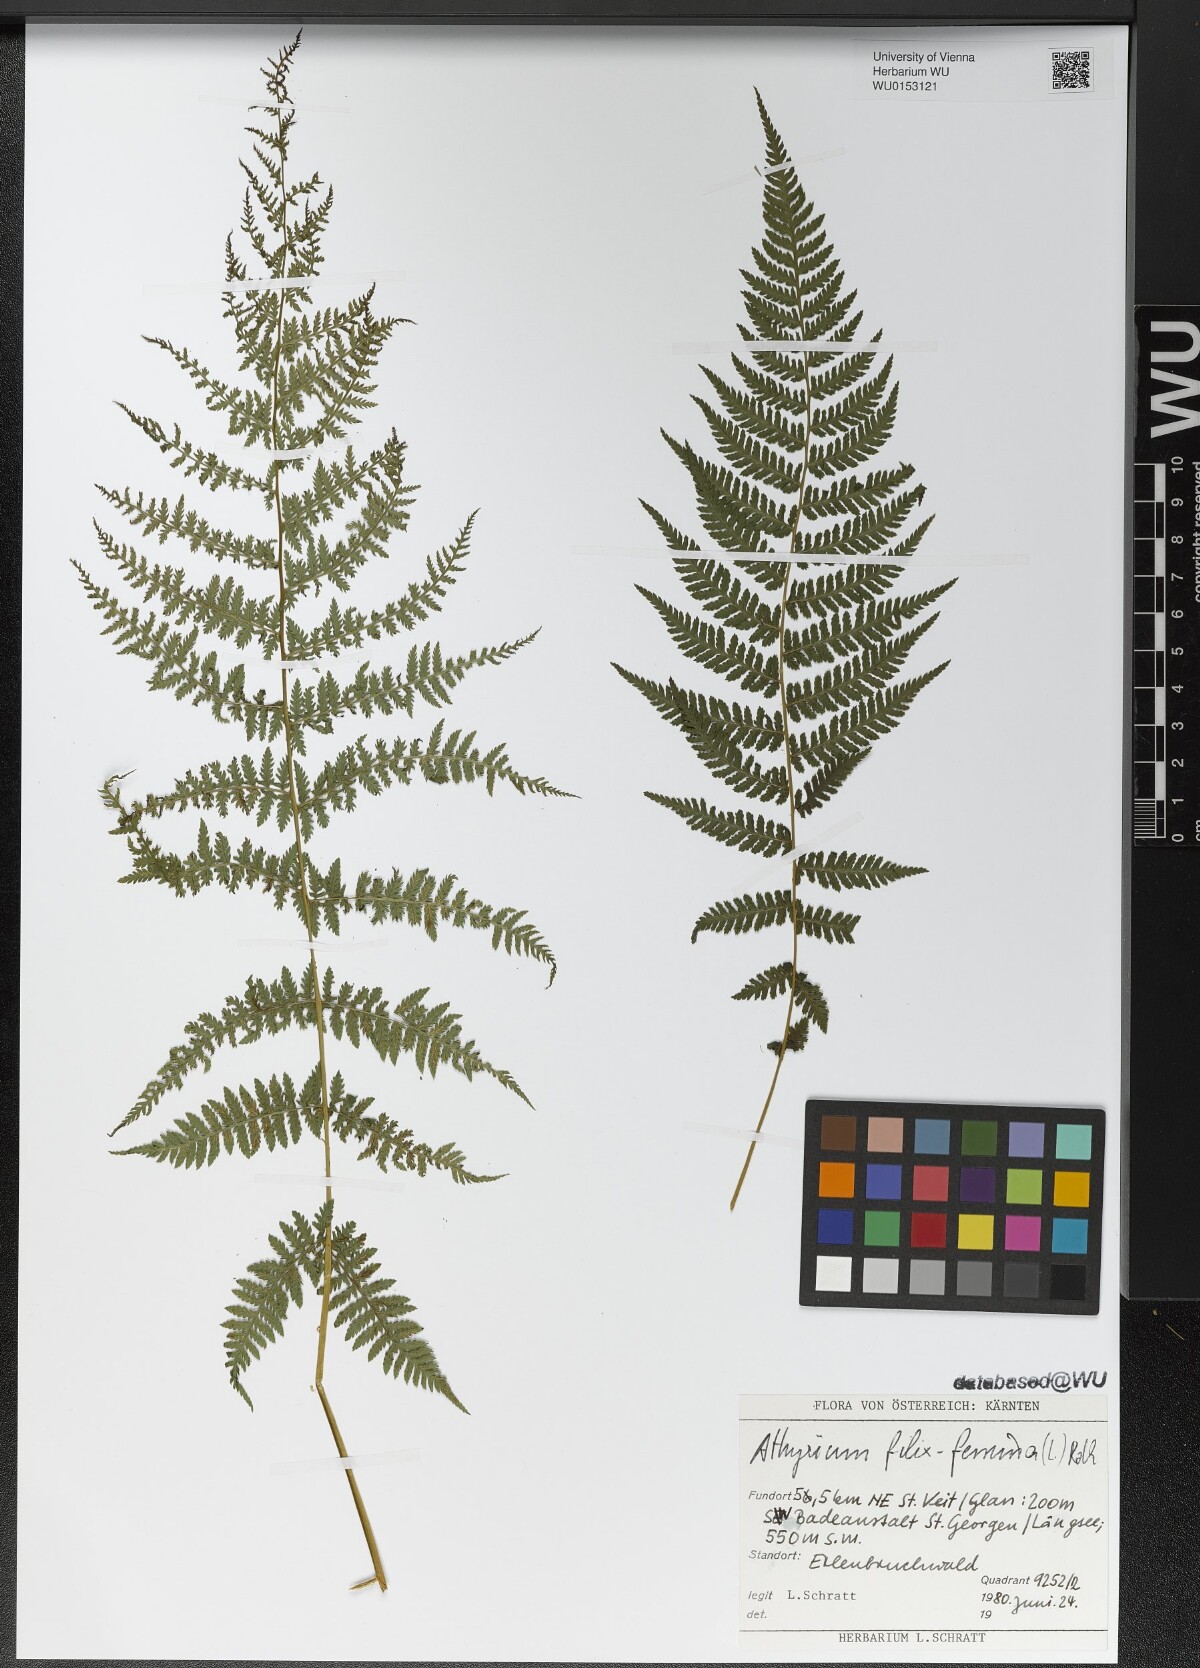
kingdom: Plantae
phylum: Tracheophyta
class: Polypodiopsida
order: Polypodiales
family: Athyriaceae
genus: Athyrium
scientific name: Athyrium filix-femina
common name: Lady fern
